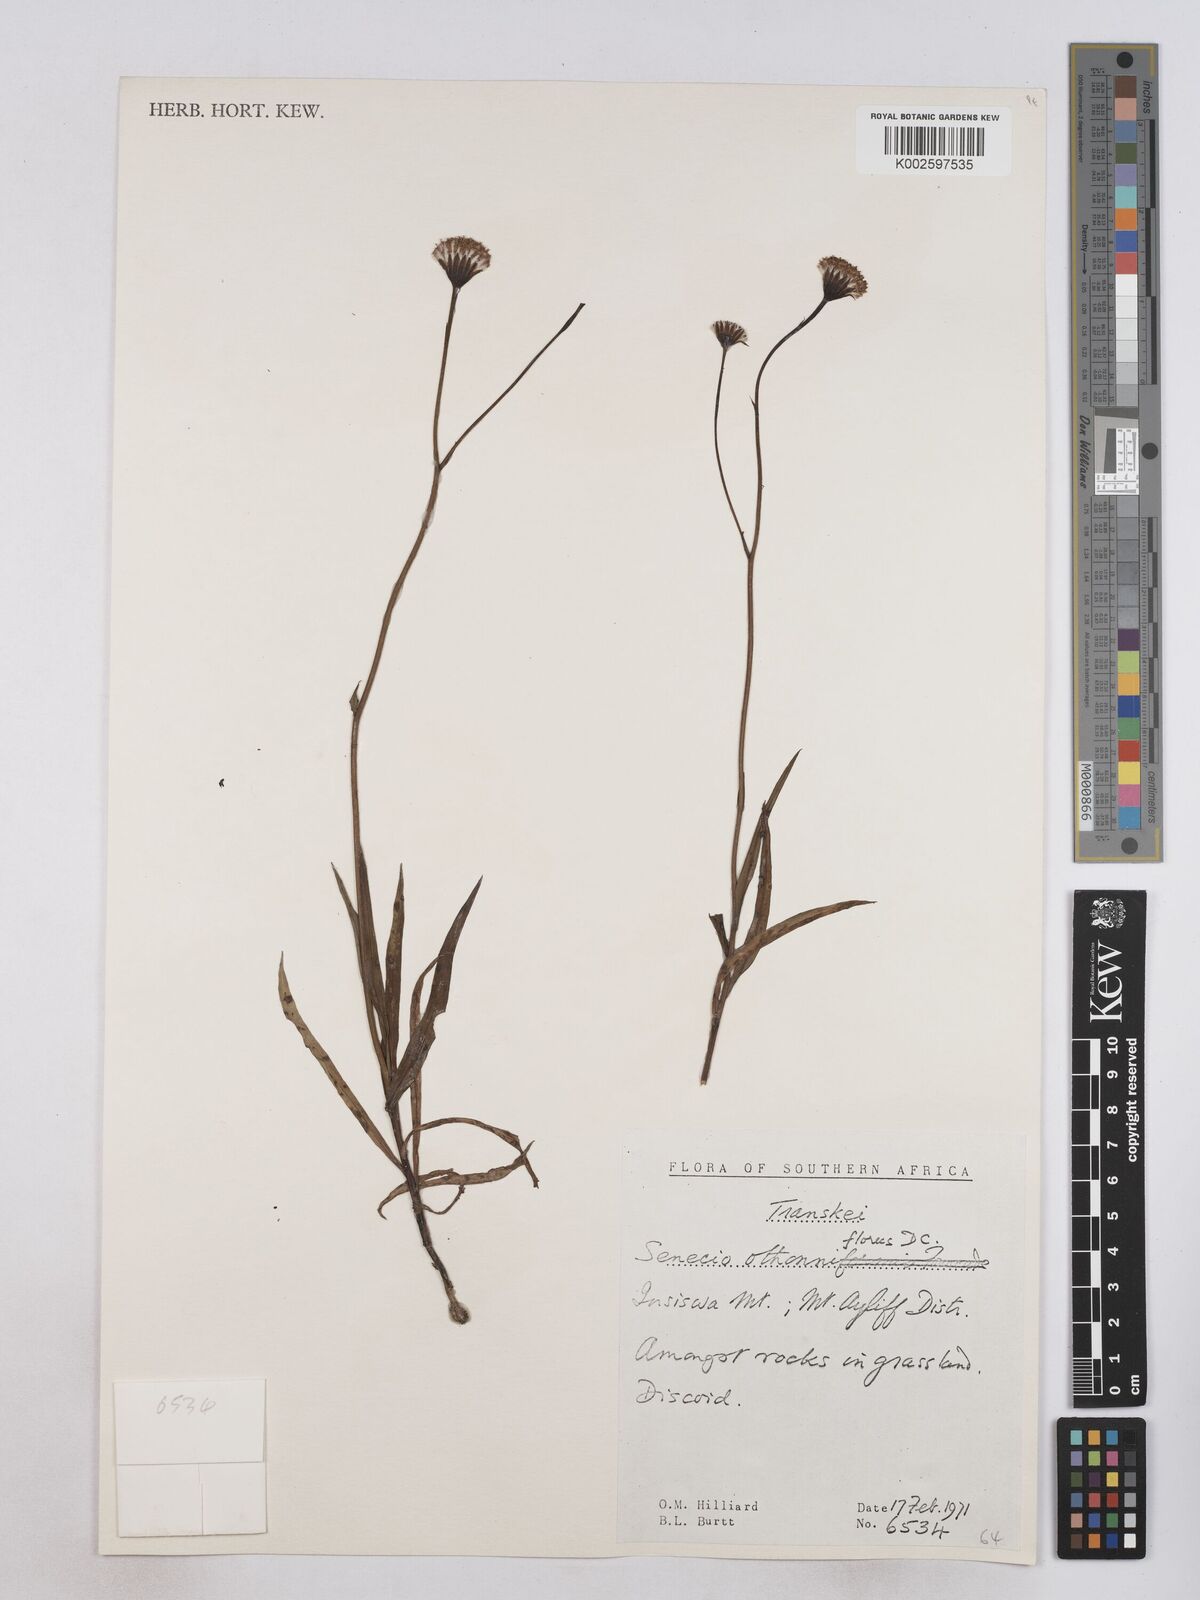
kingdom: Plantae
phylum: Tracheophyta
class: Magnoliopsida
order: Asterales
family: Asteraceae
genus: Senecio
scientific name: Senecio othonniflorus
